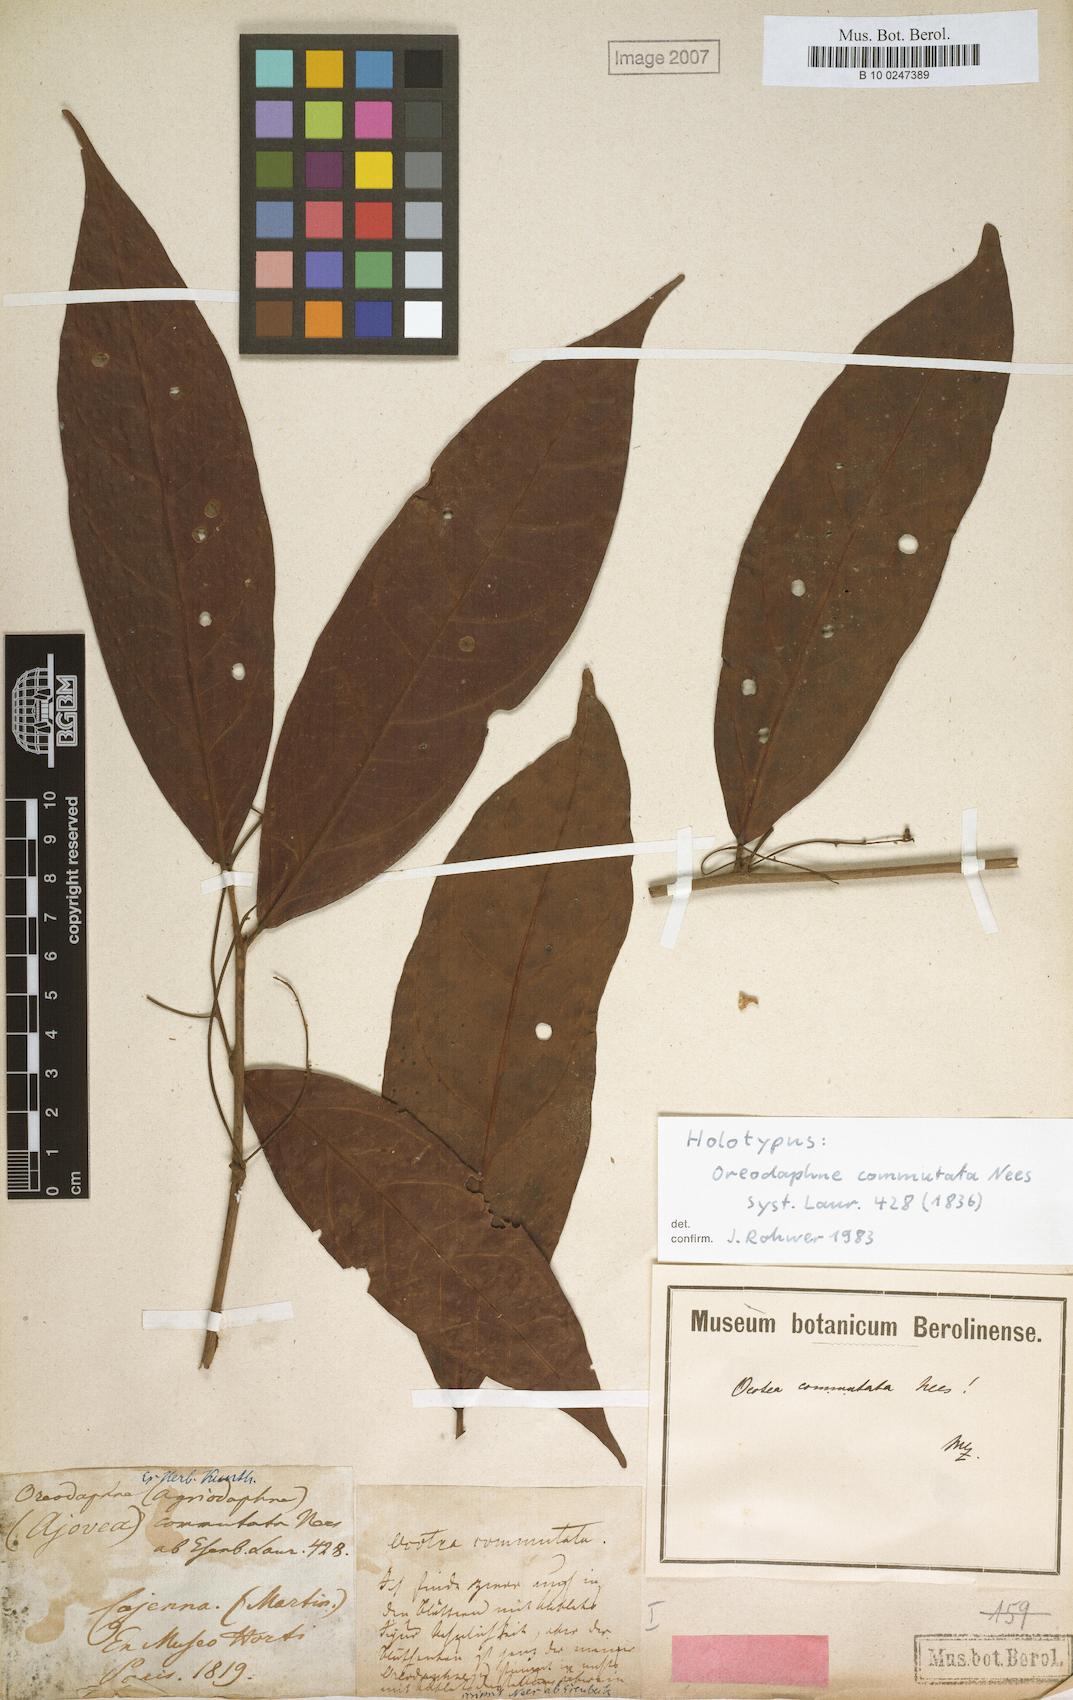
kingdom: Plantae
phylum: Tracheophyta
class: Magnoliopsida
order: Laurales
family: Lauraceae
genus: Ocotea
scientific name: Ocotea commutata
